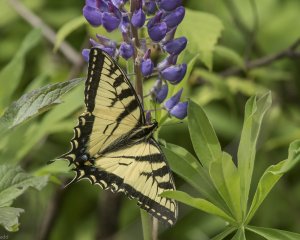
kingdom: Animalia
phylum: Arthropoda
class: Insecta
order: Lepidoptera
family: Papilionidae
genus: Pterourus
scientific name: Pterourus canadensis
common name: Canadian Tiger Swallowtail
